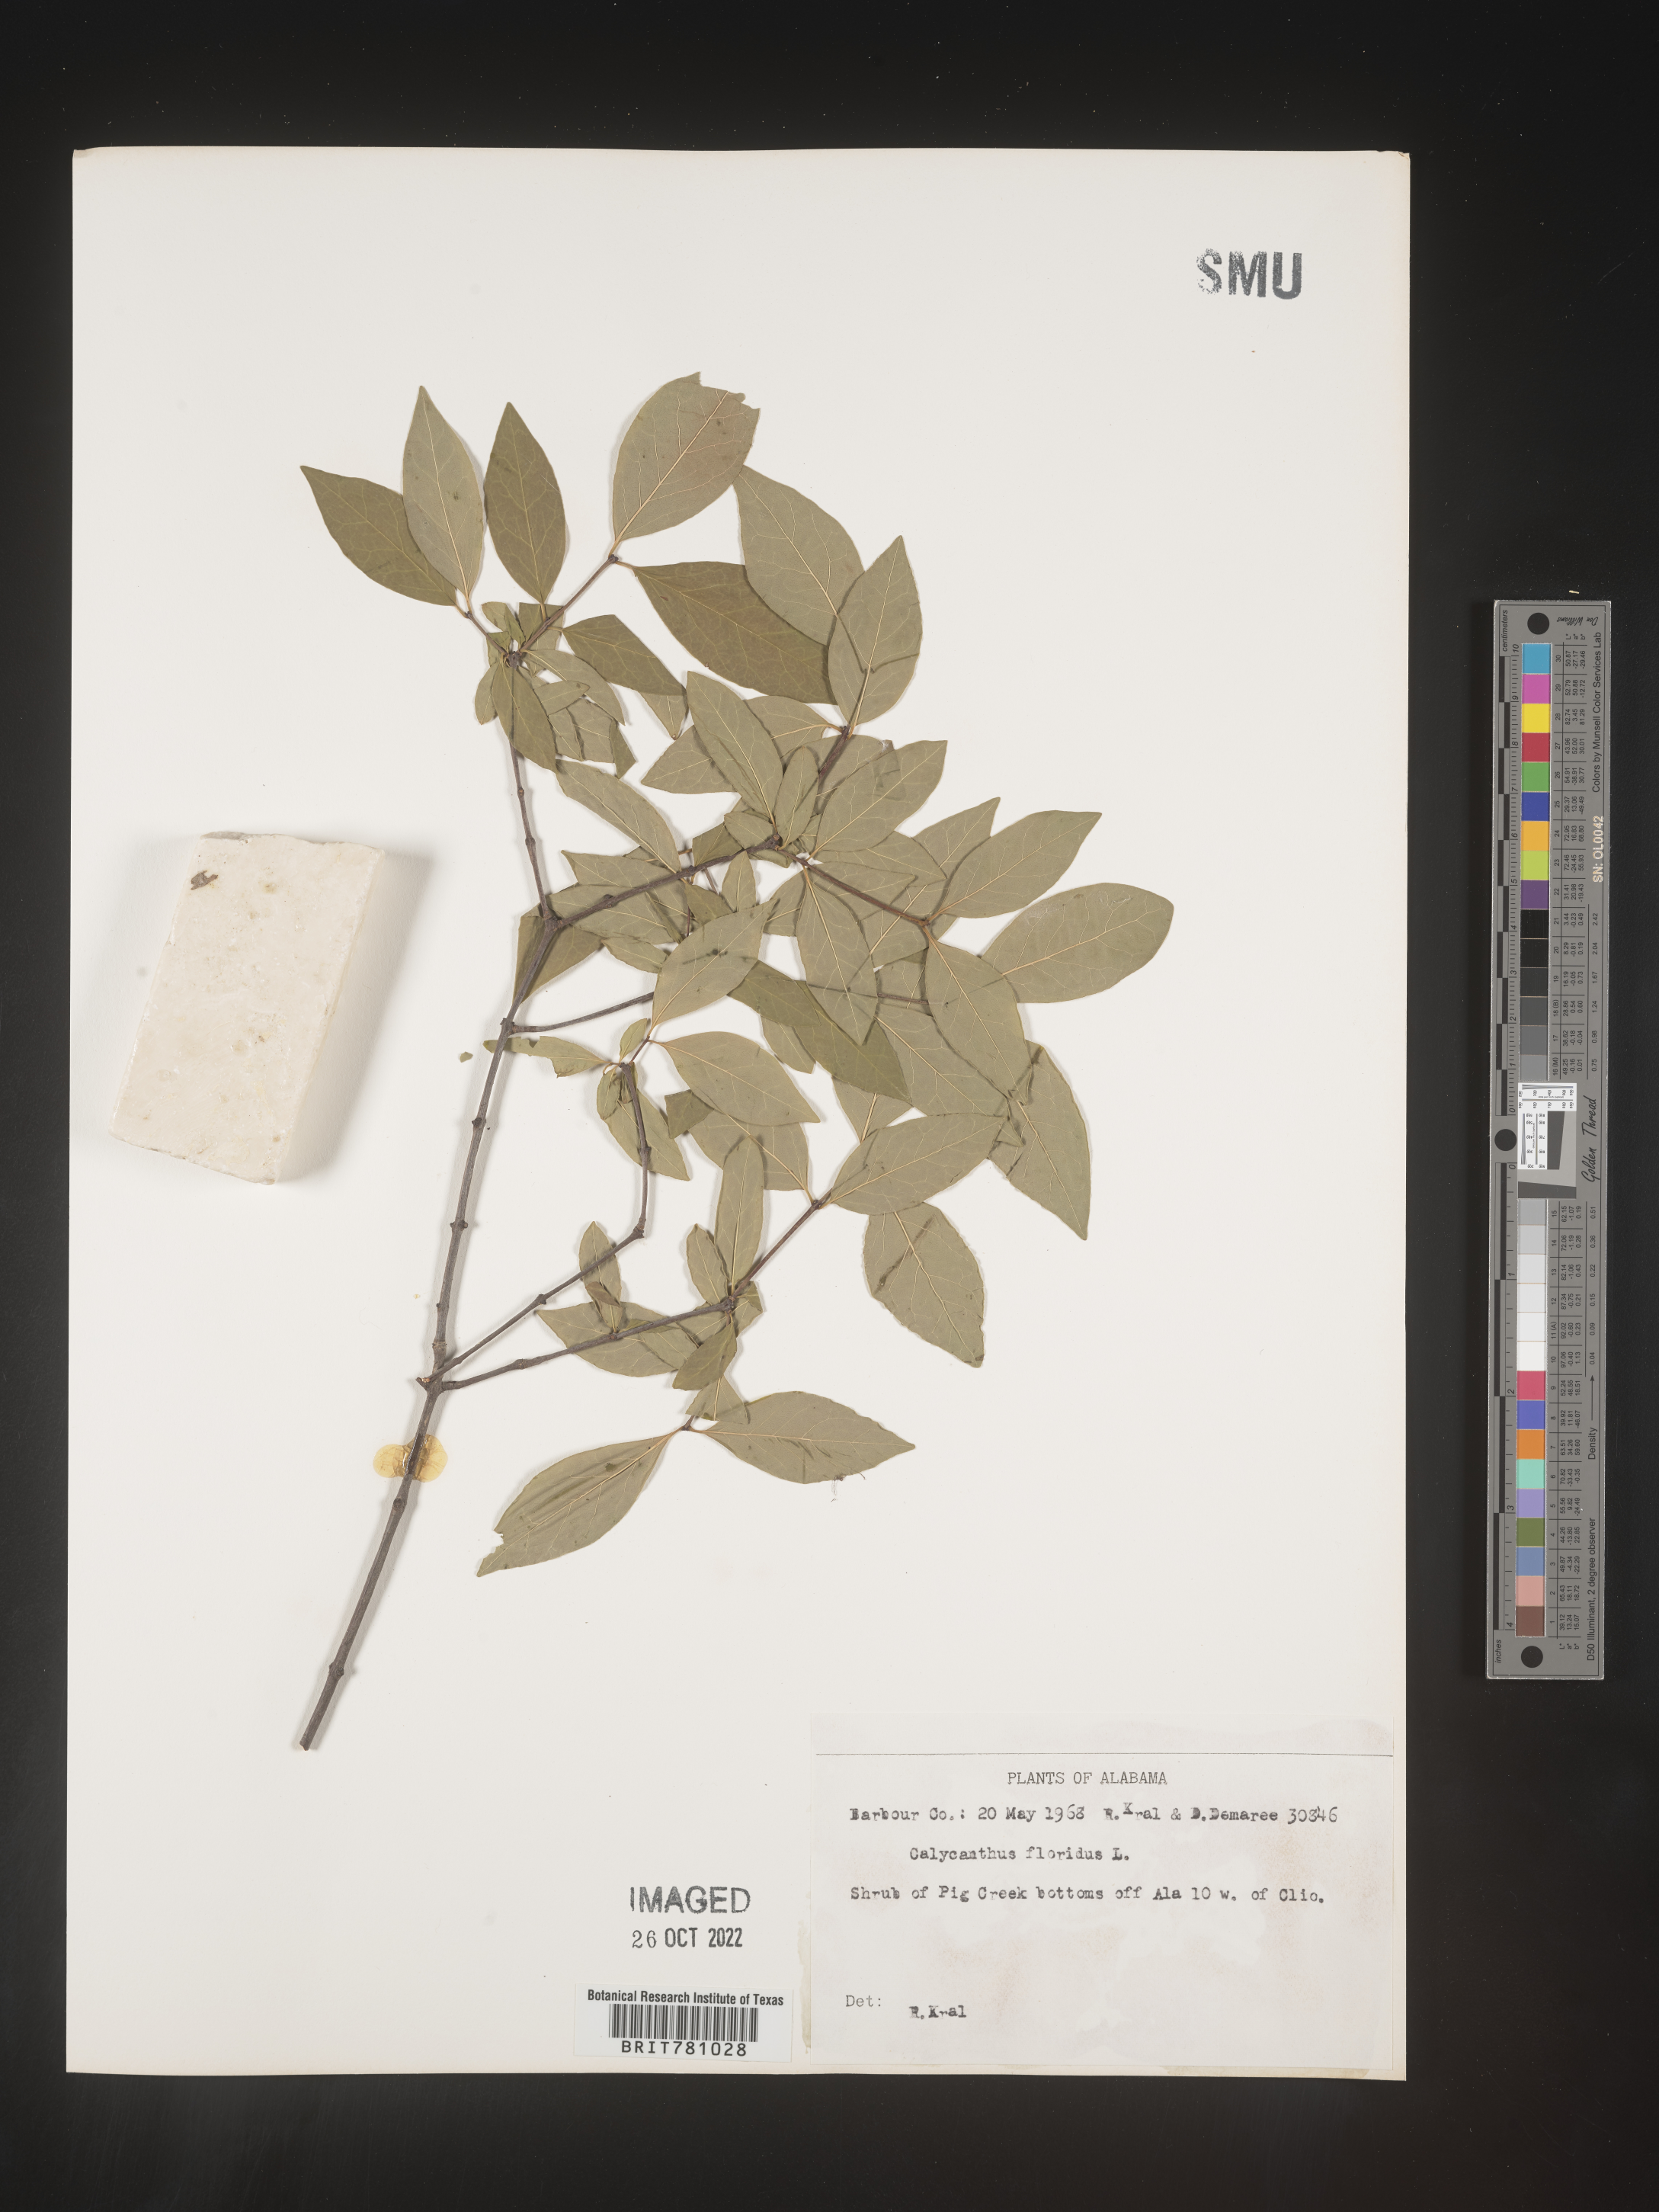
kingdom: Plantae
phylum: Tracheophyta
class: Magnoliopsida
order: Laurales
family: Calycanthaceae
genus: Calycanthus
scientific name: Calycanthus floridus
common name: Carolina-allspice
